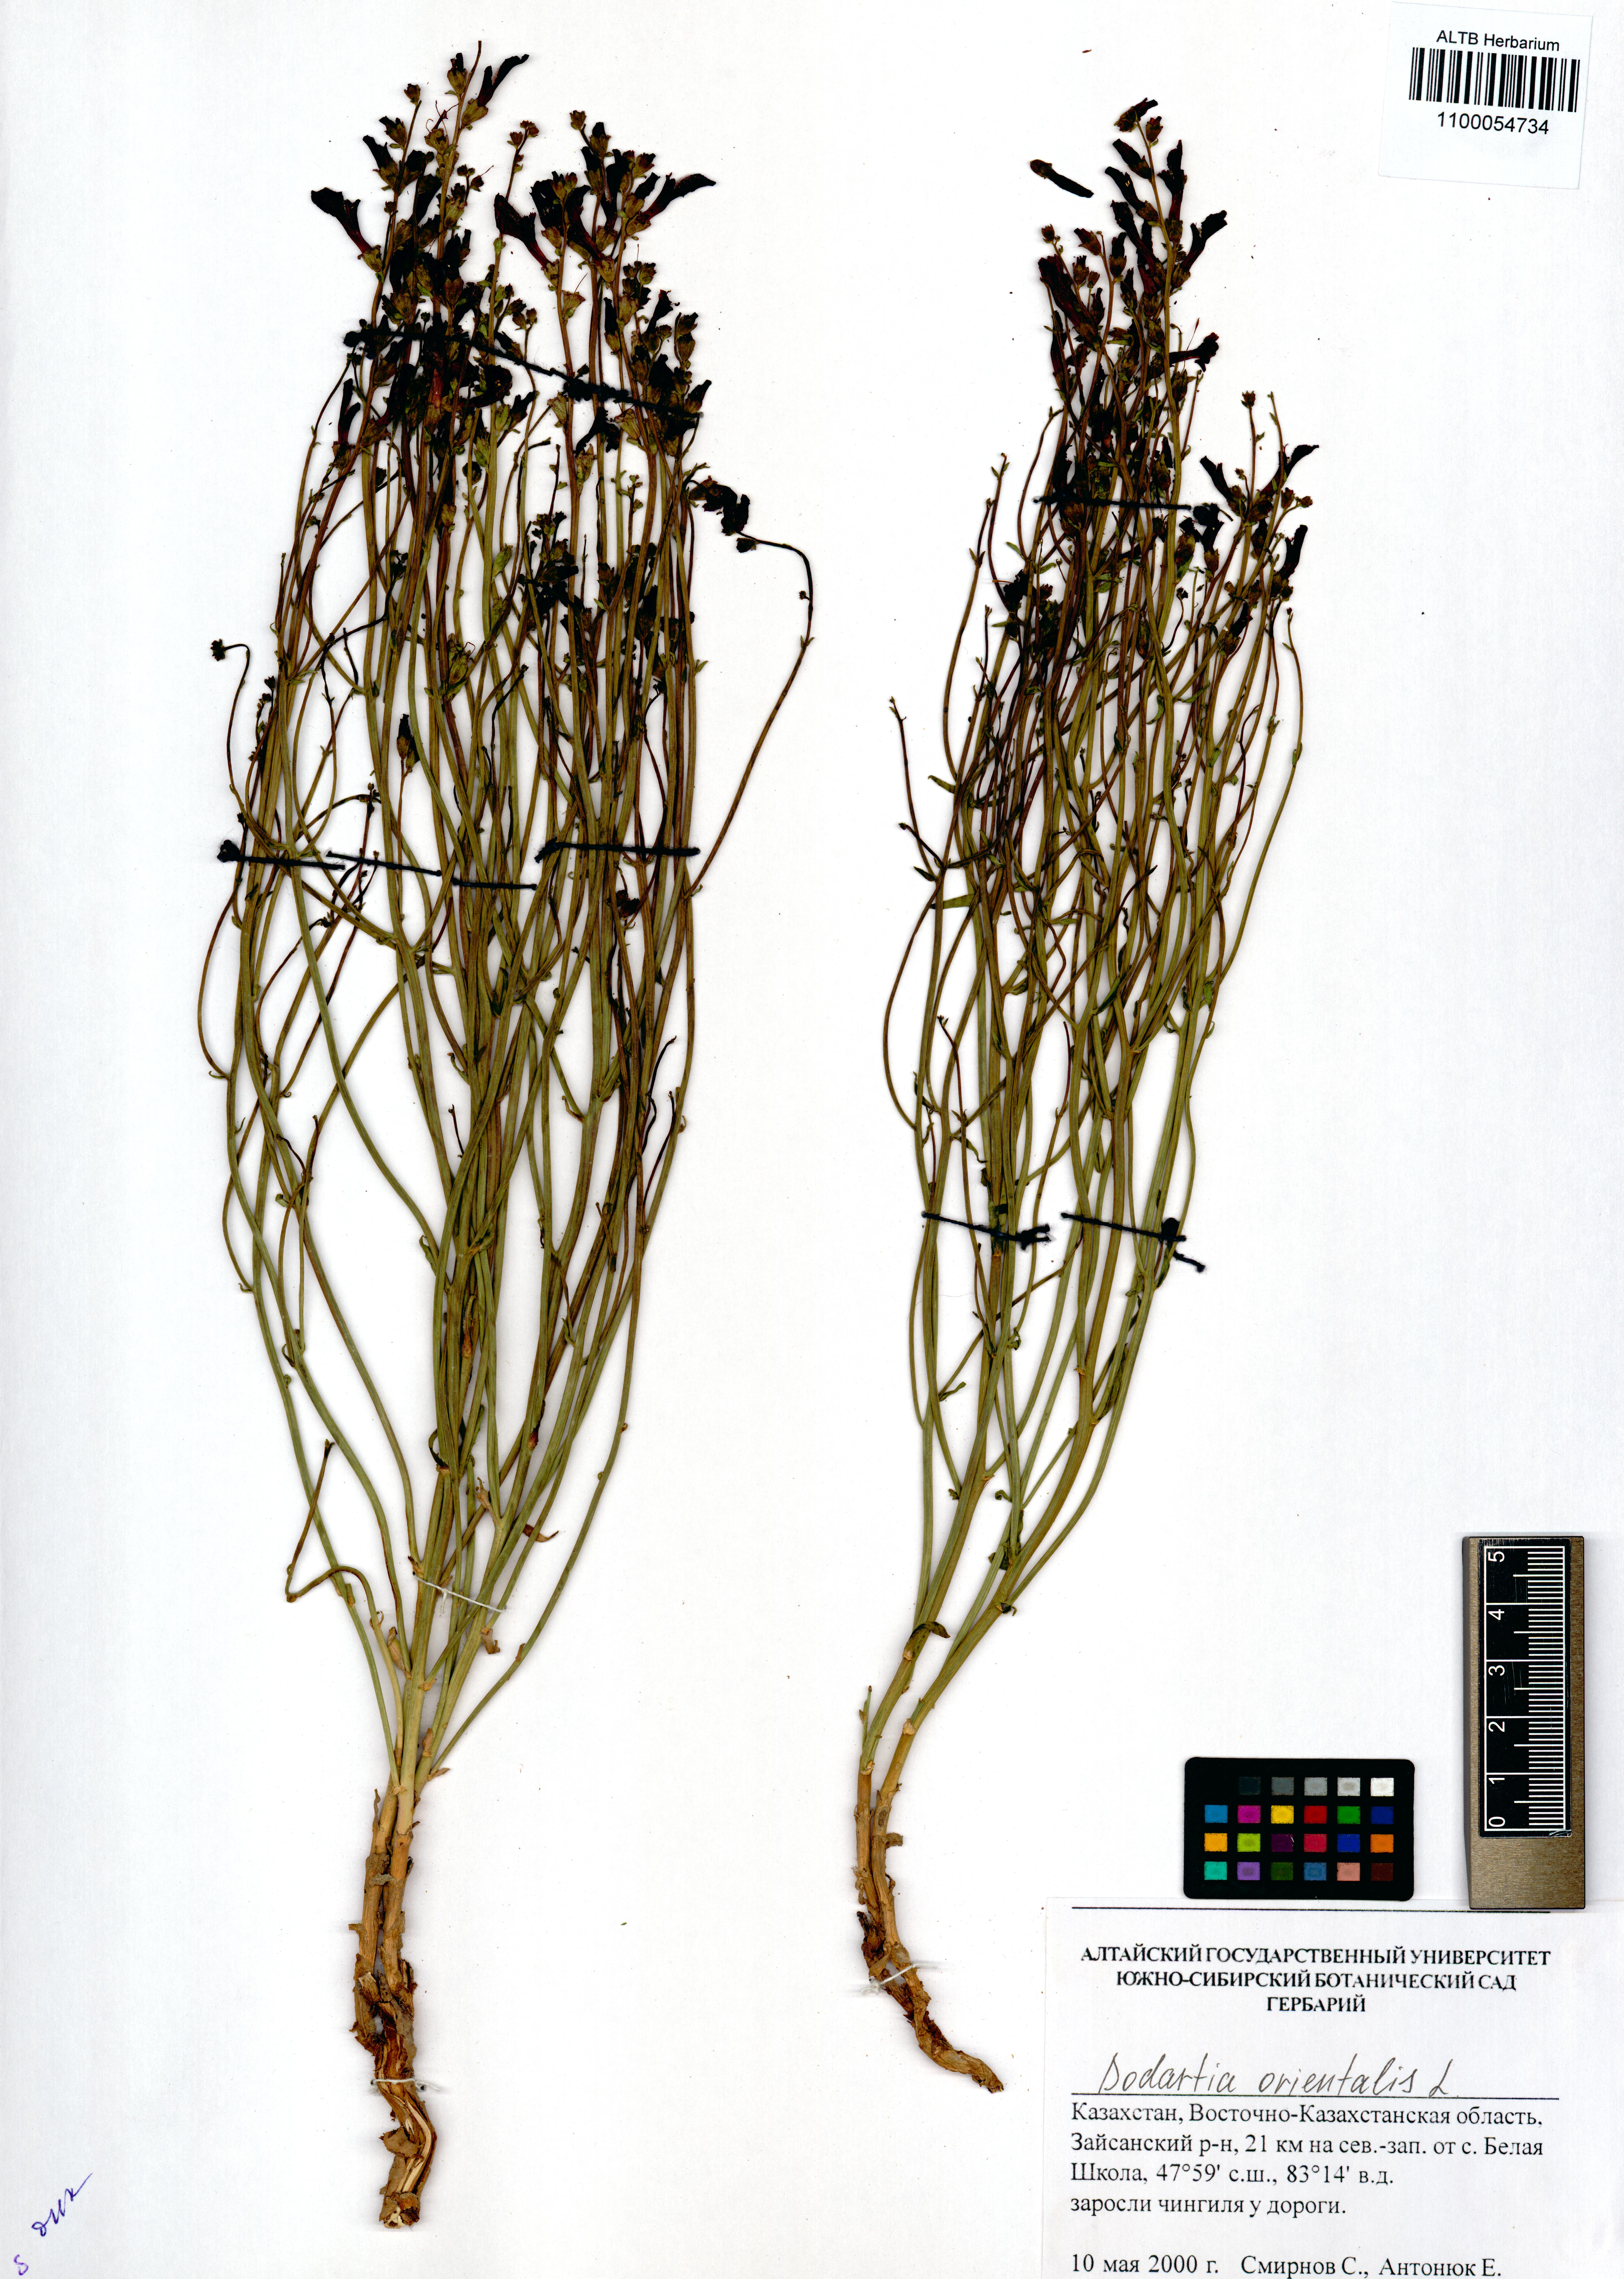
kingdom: Plantae
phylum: Tracheophyta
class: Magnoliopsida
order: Lamiales
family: Mazaceae
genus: Dodartia
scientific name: Dodartia orientalis
